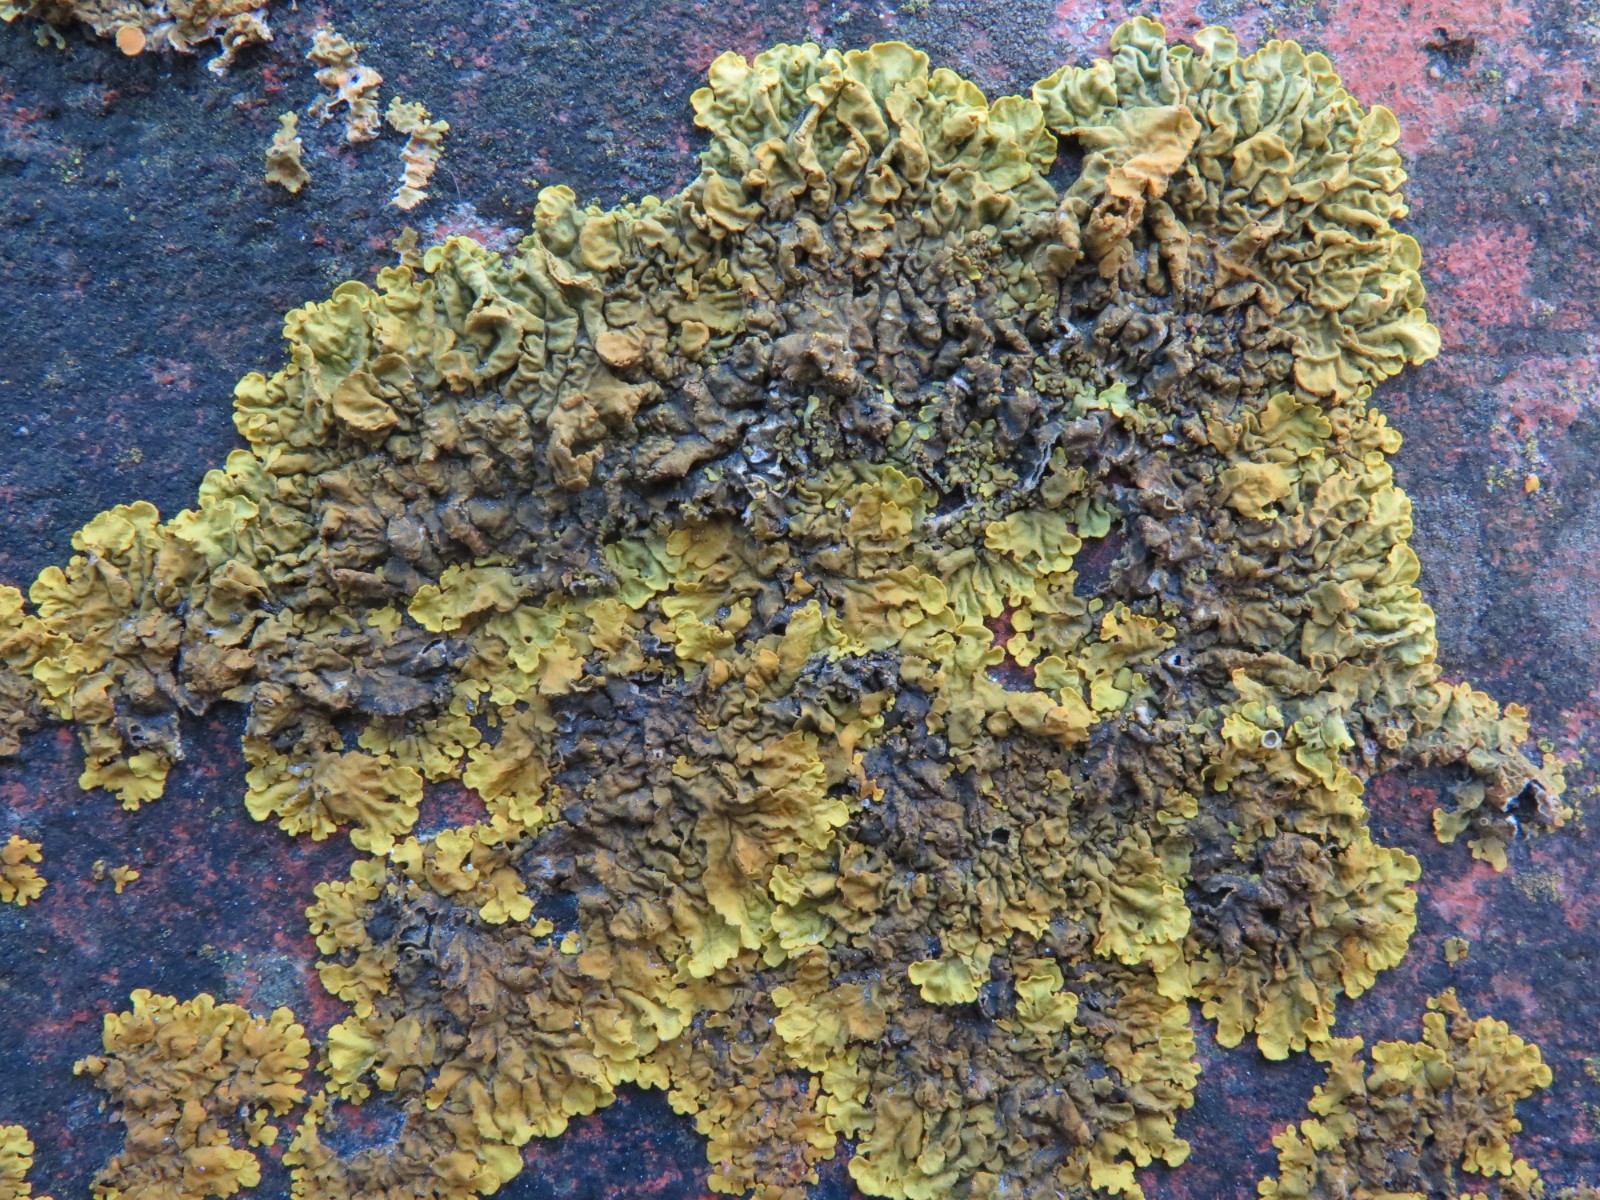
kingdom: Fungi
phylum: Ascomycota
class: Lecanoromycetes
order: Teloschistales
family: Teloschistaceae
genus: Xanthoria
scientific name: Xanthoria parietina
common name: almindelig væggelav
